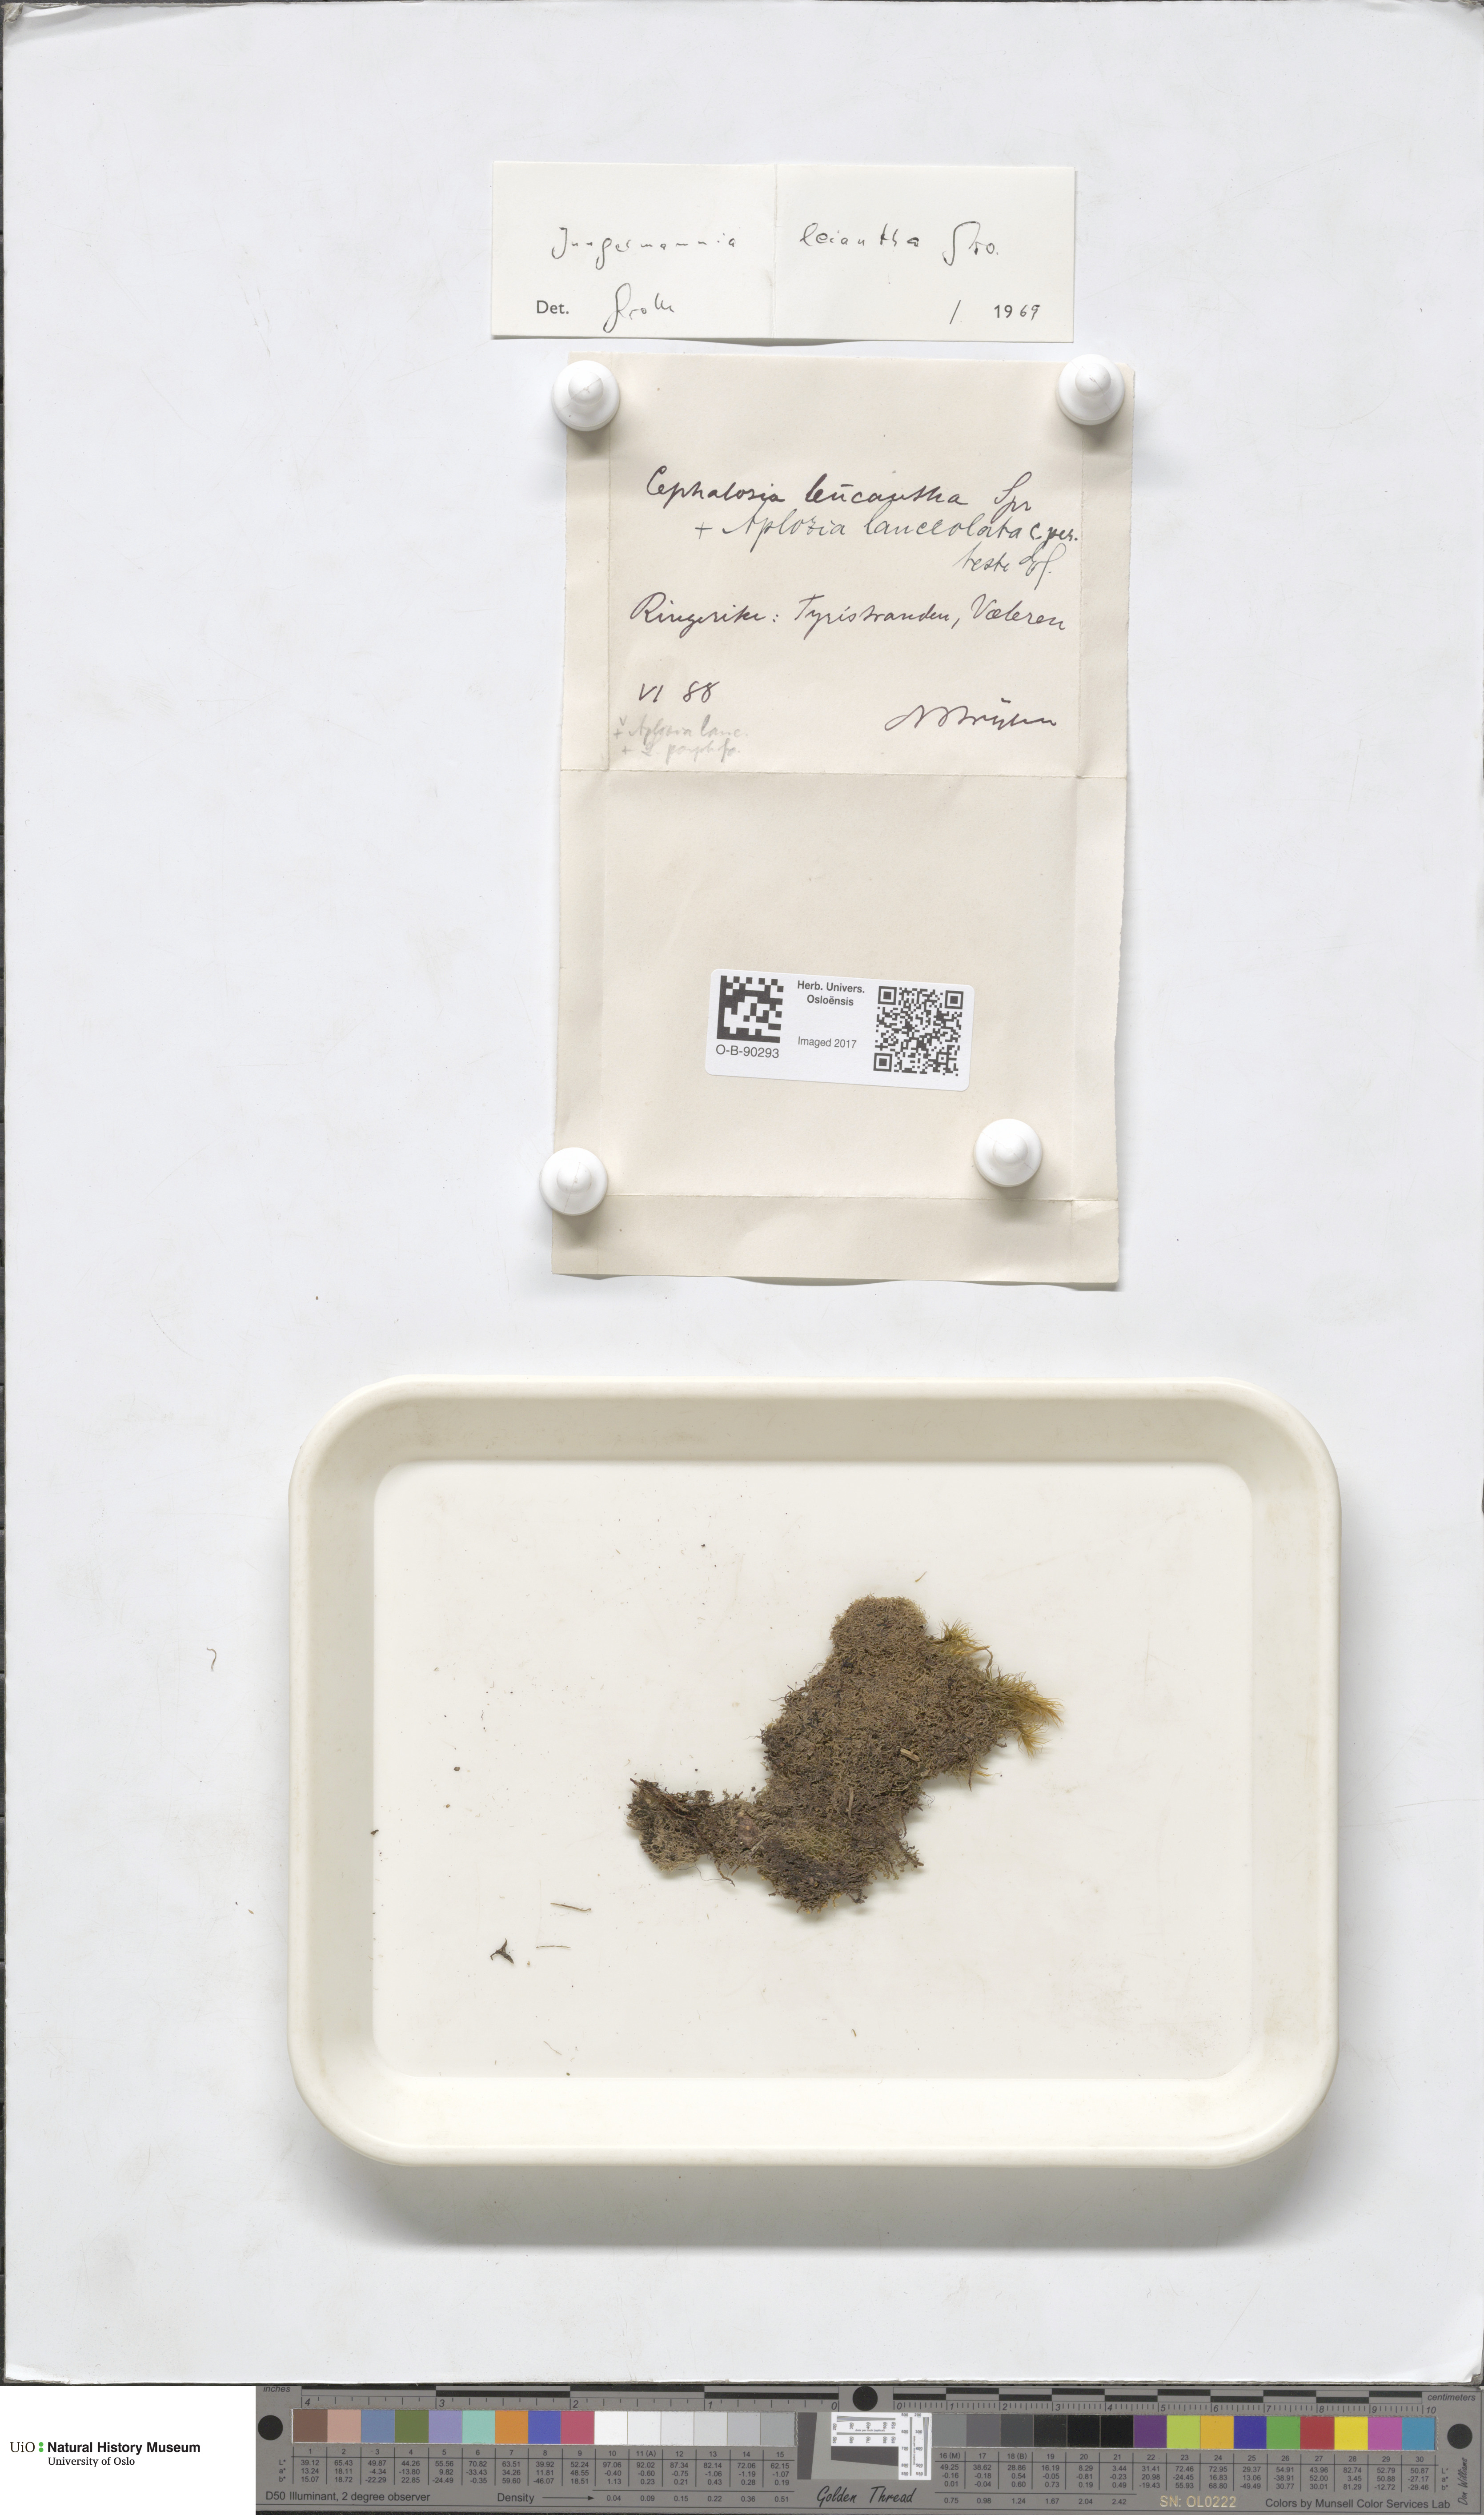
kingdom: Plantae
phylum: Marchantiophyta
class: Jungermanniopsida
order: Jungermanniales
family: Jungermanniaceae
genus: Liochlaena
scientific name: Liochlaena lanceolata
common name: Long-leaved flapwort
